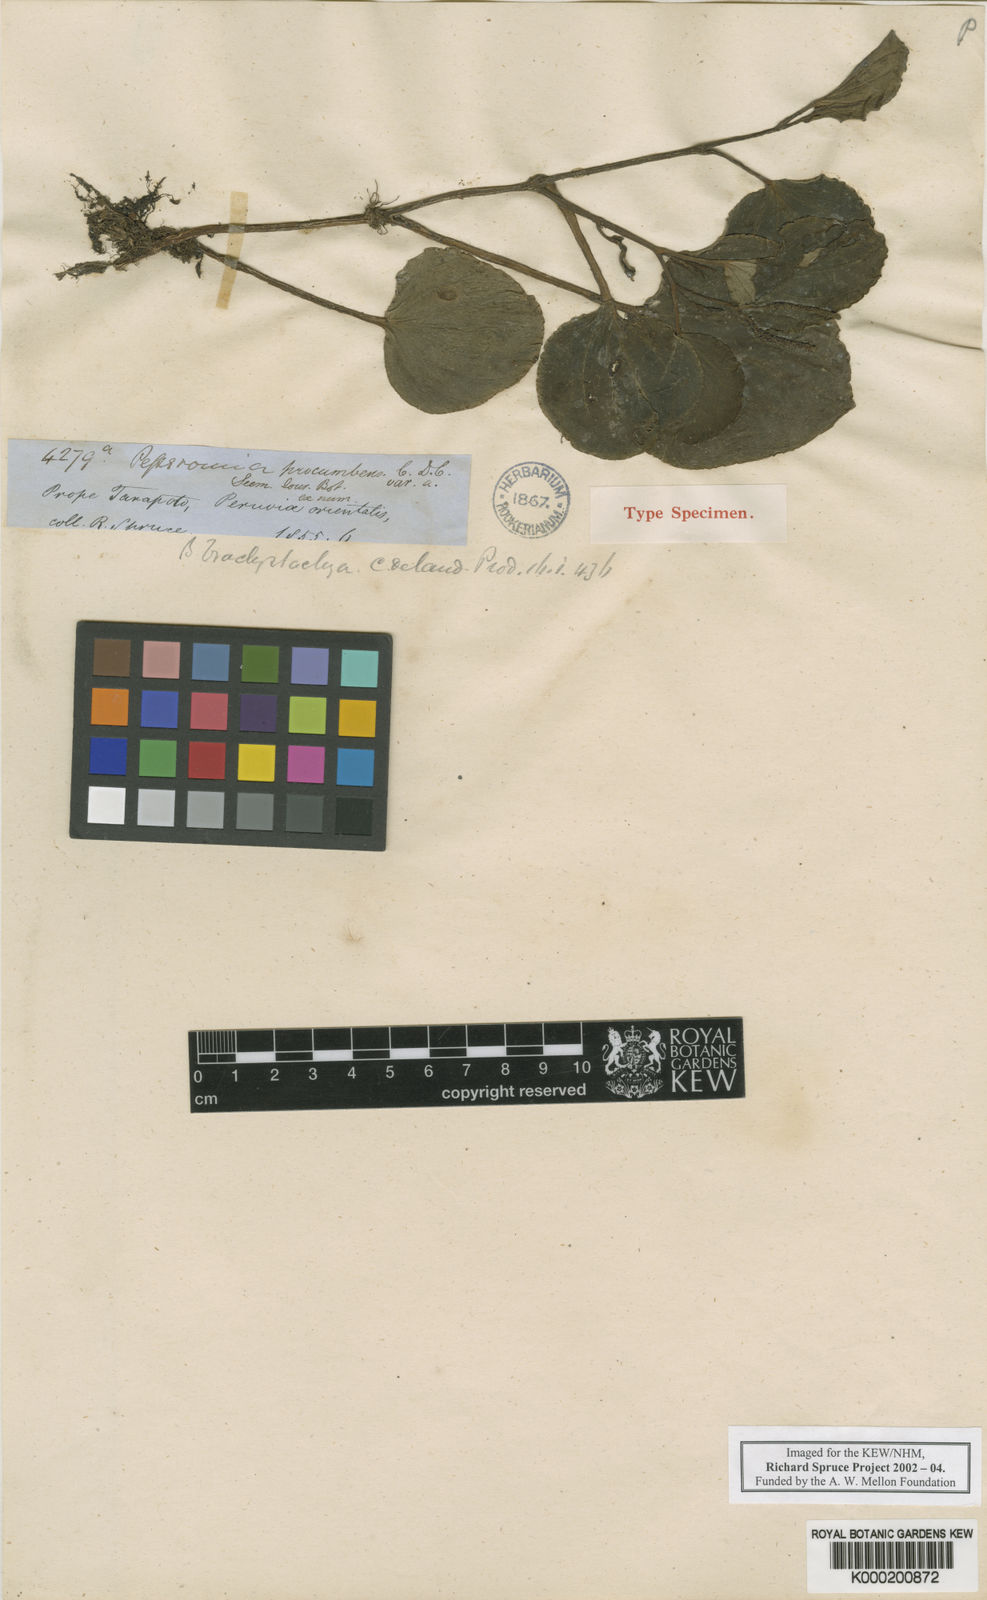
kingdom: Plantae
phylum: Tracheophyta
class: Magnoliopsida
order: Piperales
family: Piperaceae
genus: Peperomia
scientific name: Peperomia procumbens
